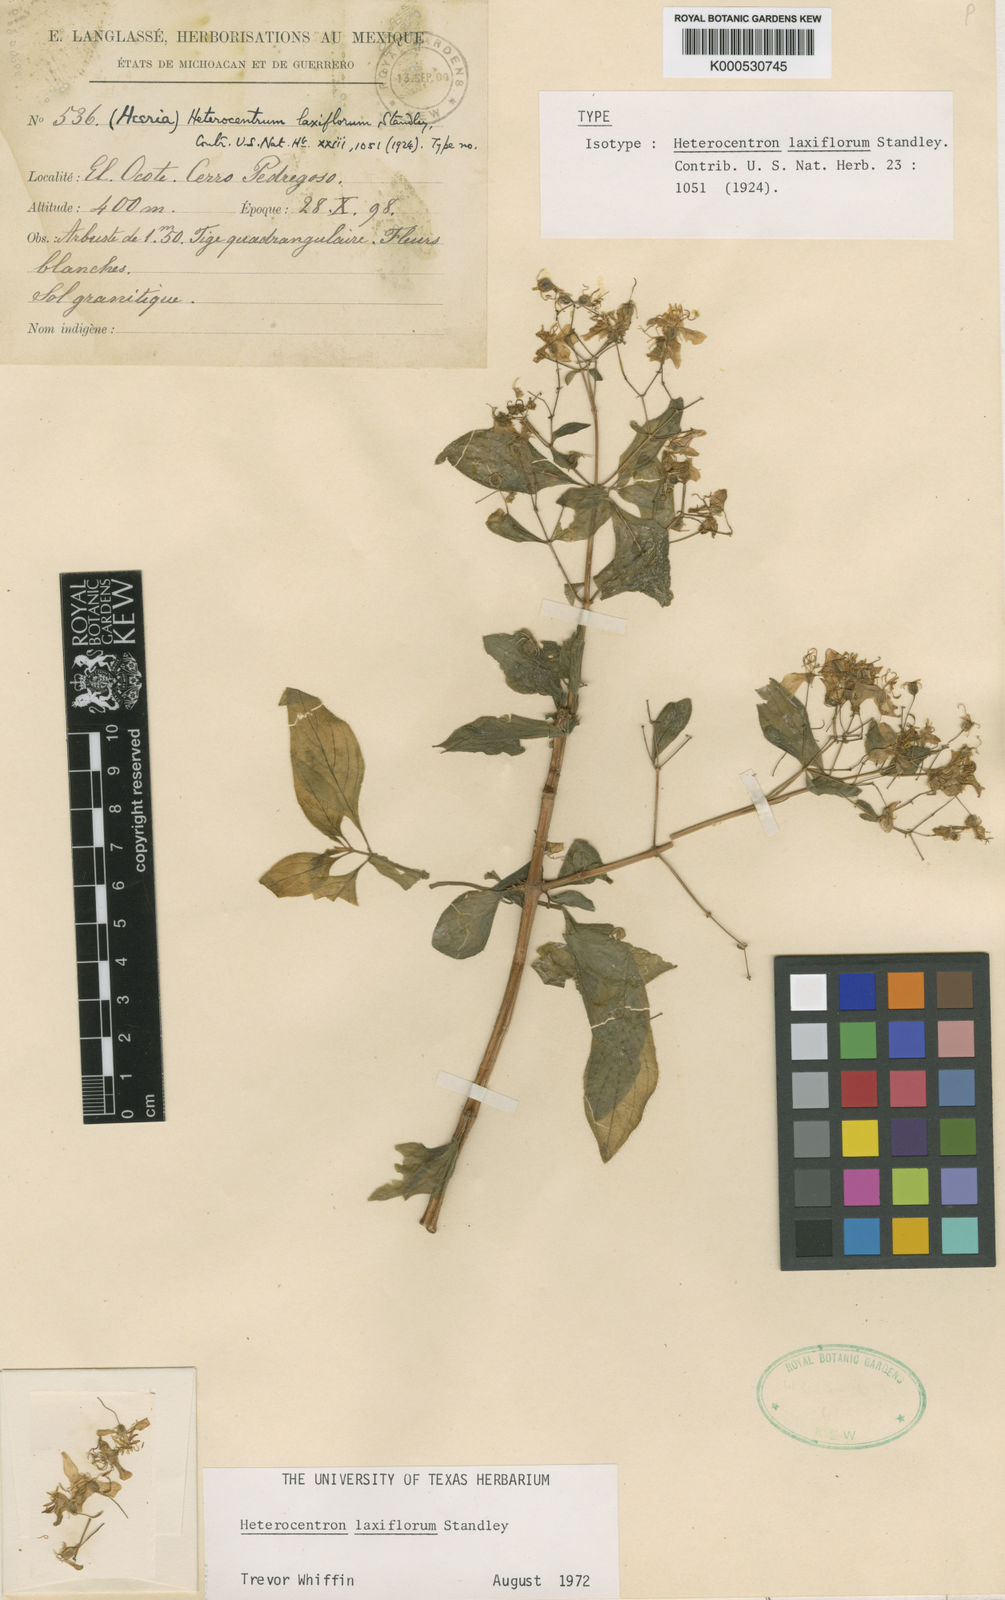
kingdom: Plantae
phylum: Tracheophyta
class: Magnoliopsida
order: Myrtales
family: Melastomataceae
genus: Heterocentron
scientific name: Heterocentron laxiflorum
